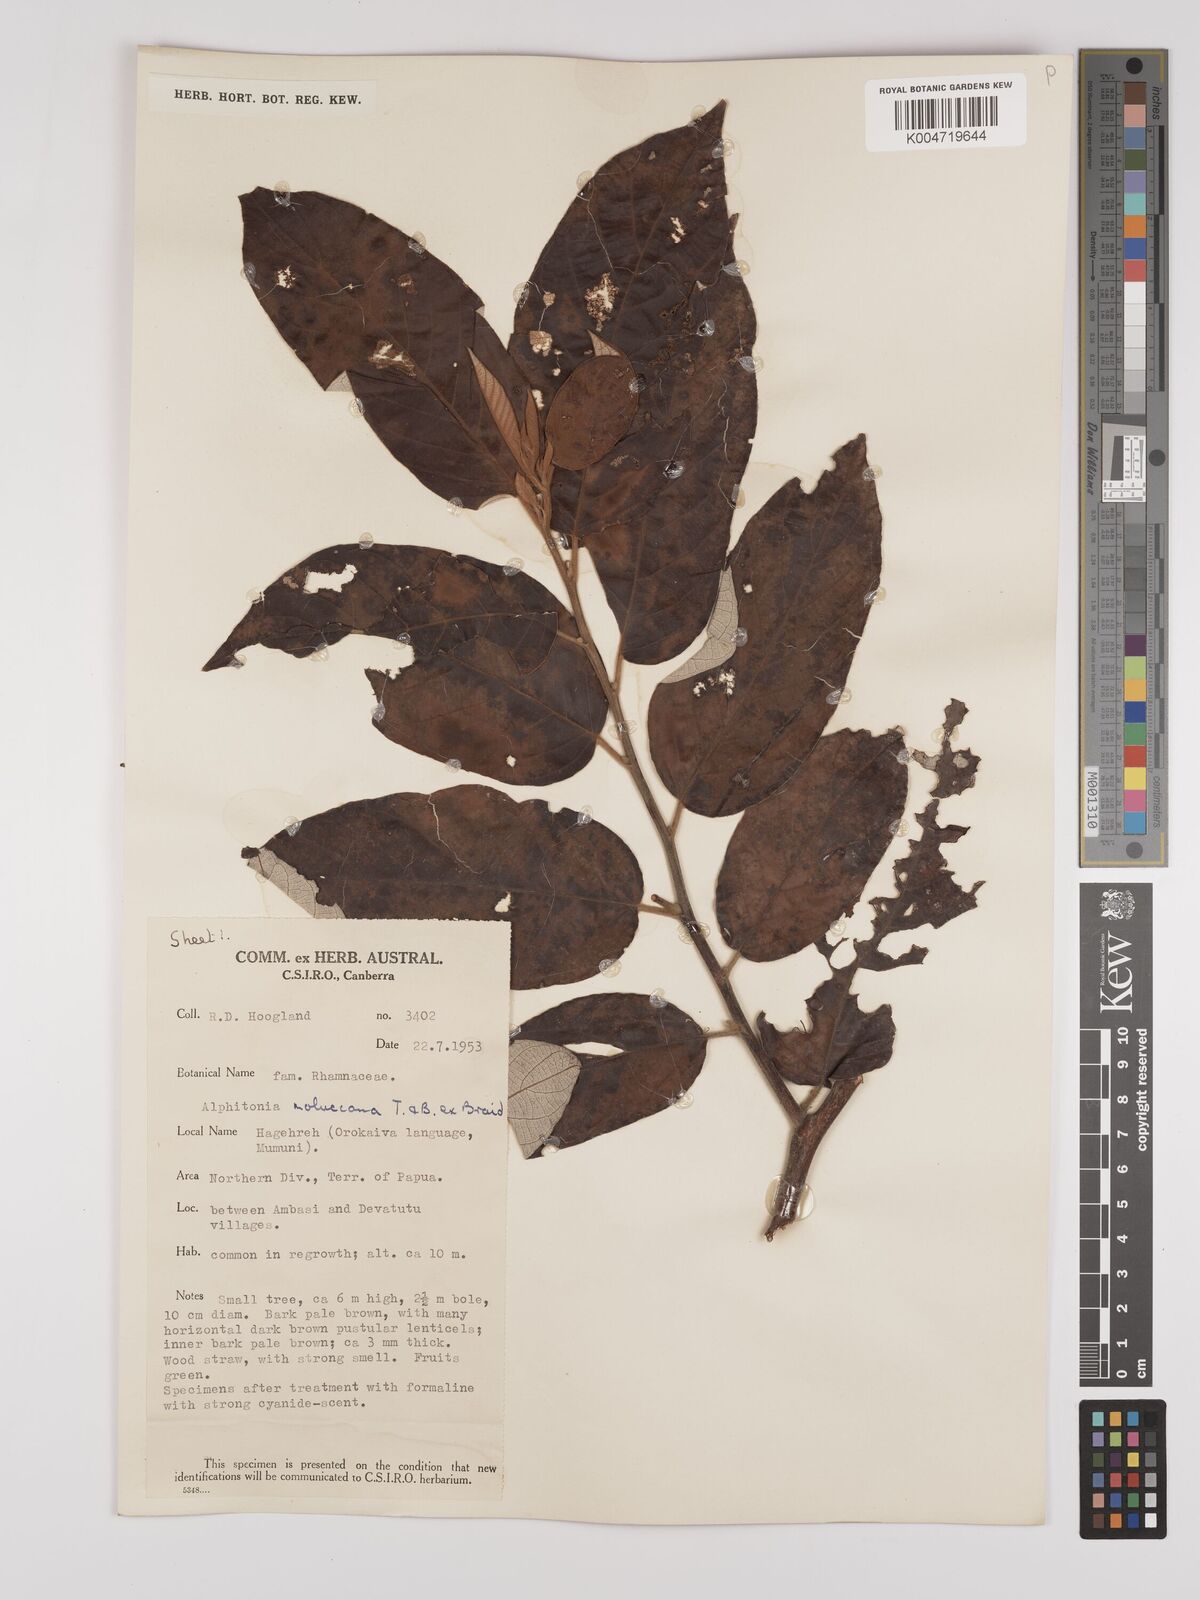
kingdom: Plantae
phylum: Tracheophyta
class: Magnoliopsida
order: Rosales
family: Rhamnaceae
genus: Alphitonia
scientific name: Alphitonia incana
